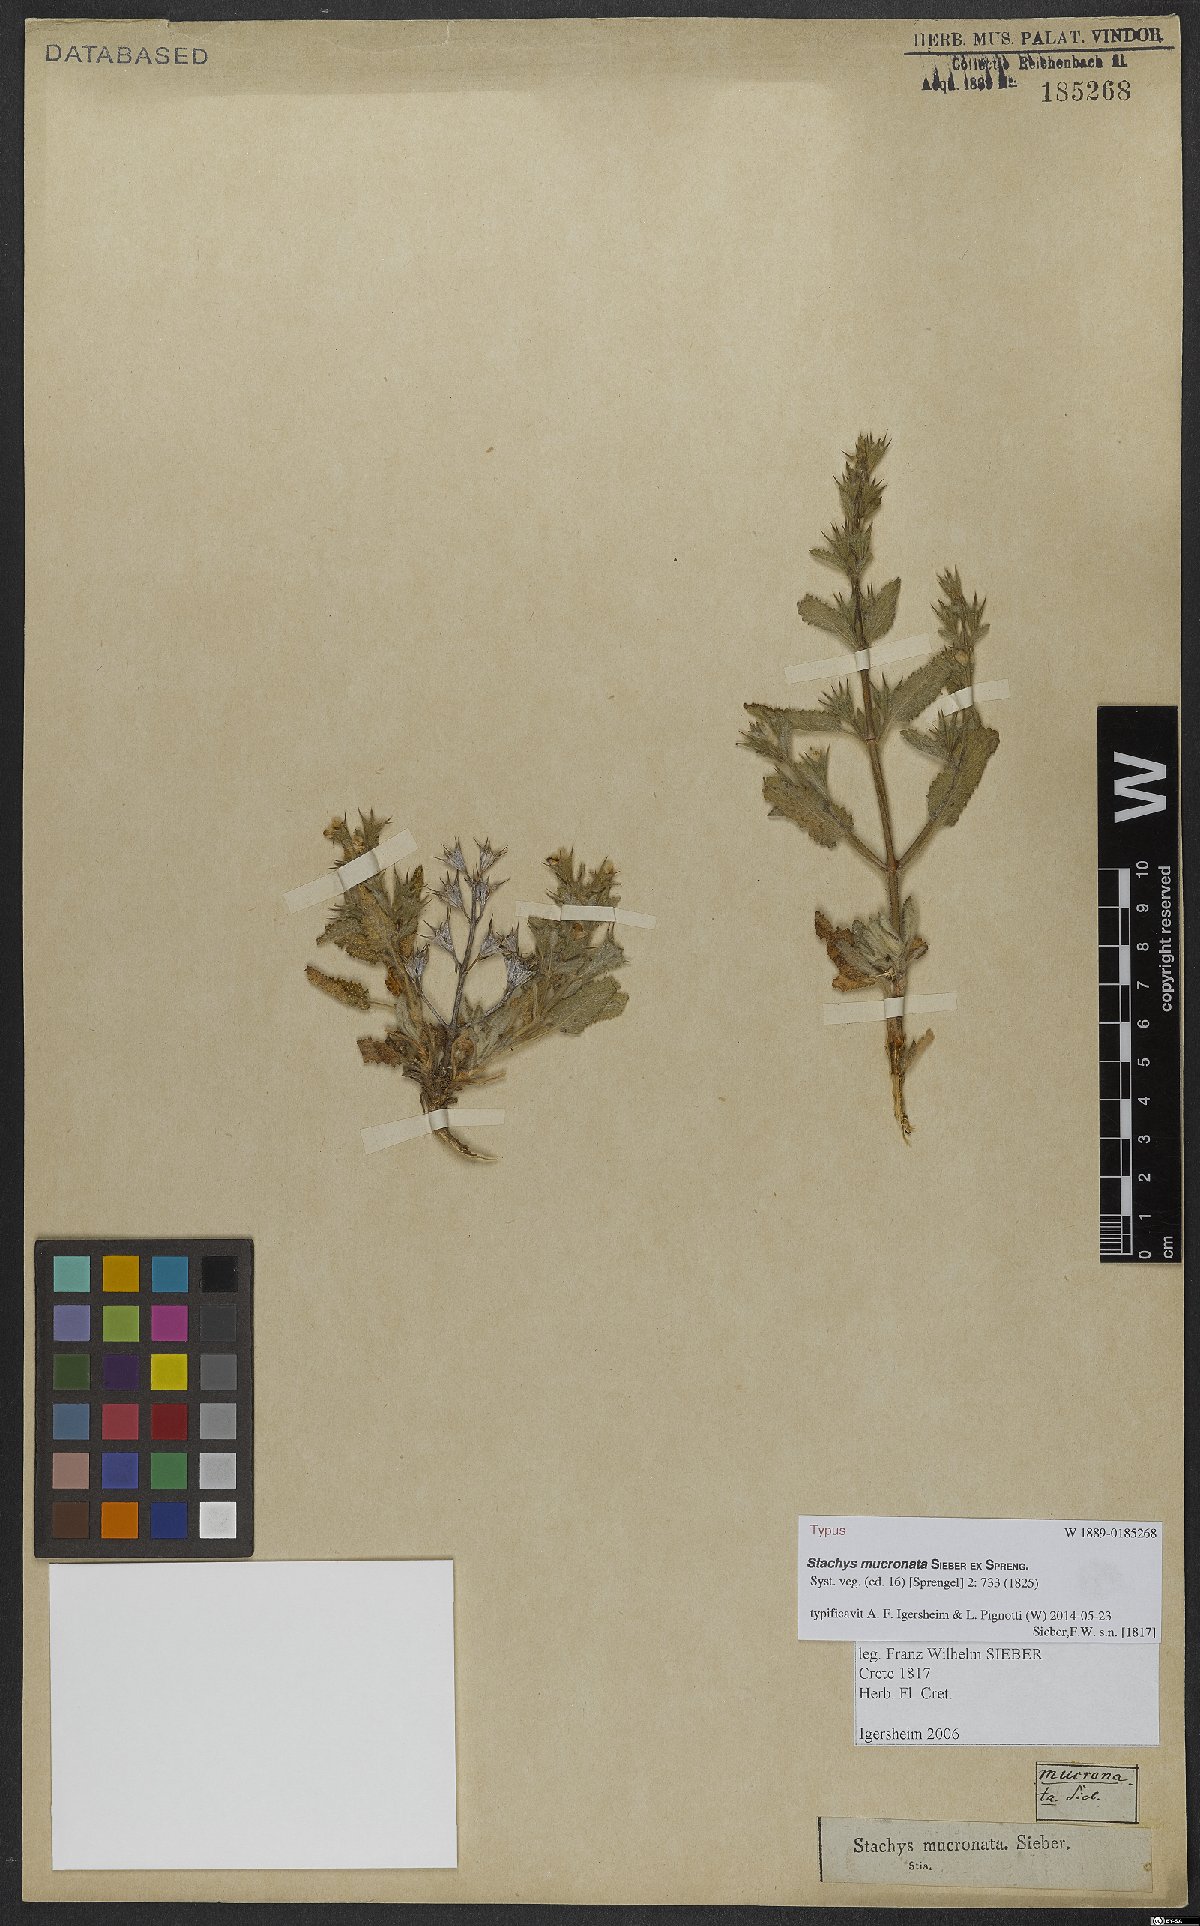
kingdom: Plantae
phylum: Tracheophyta
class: Magnoliopsida
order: Lamiales
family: Lamiaceae
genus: Stachys
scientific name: Stachys mucronata
